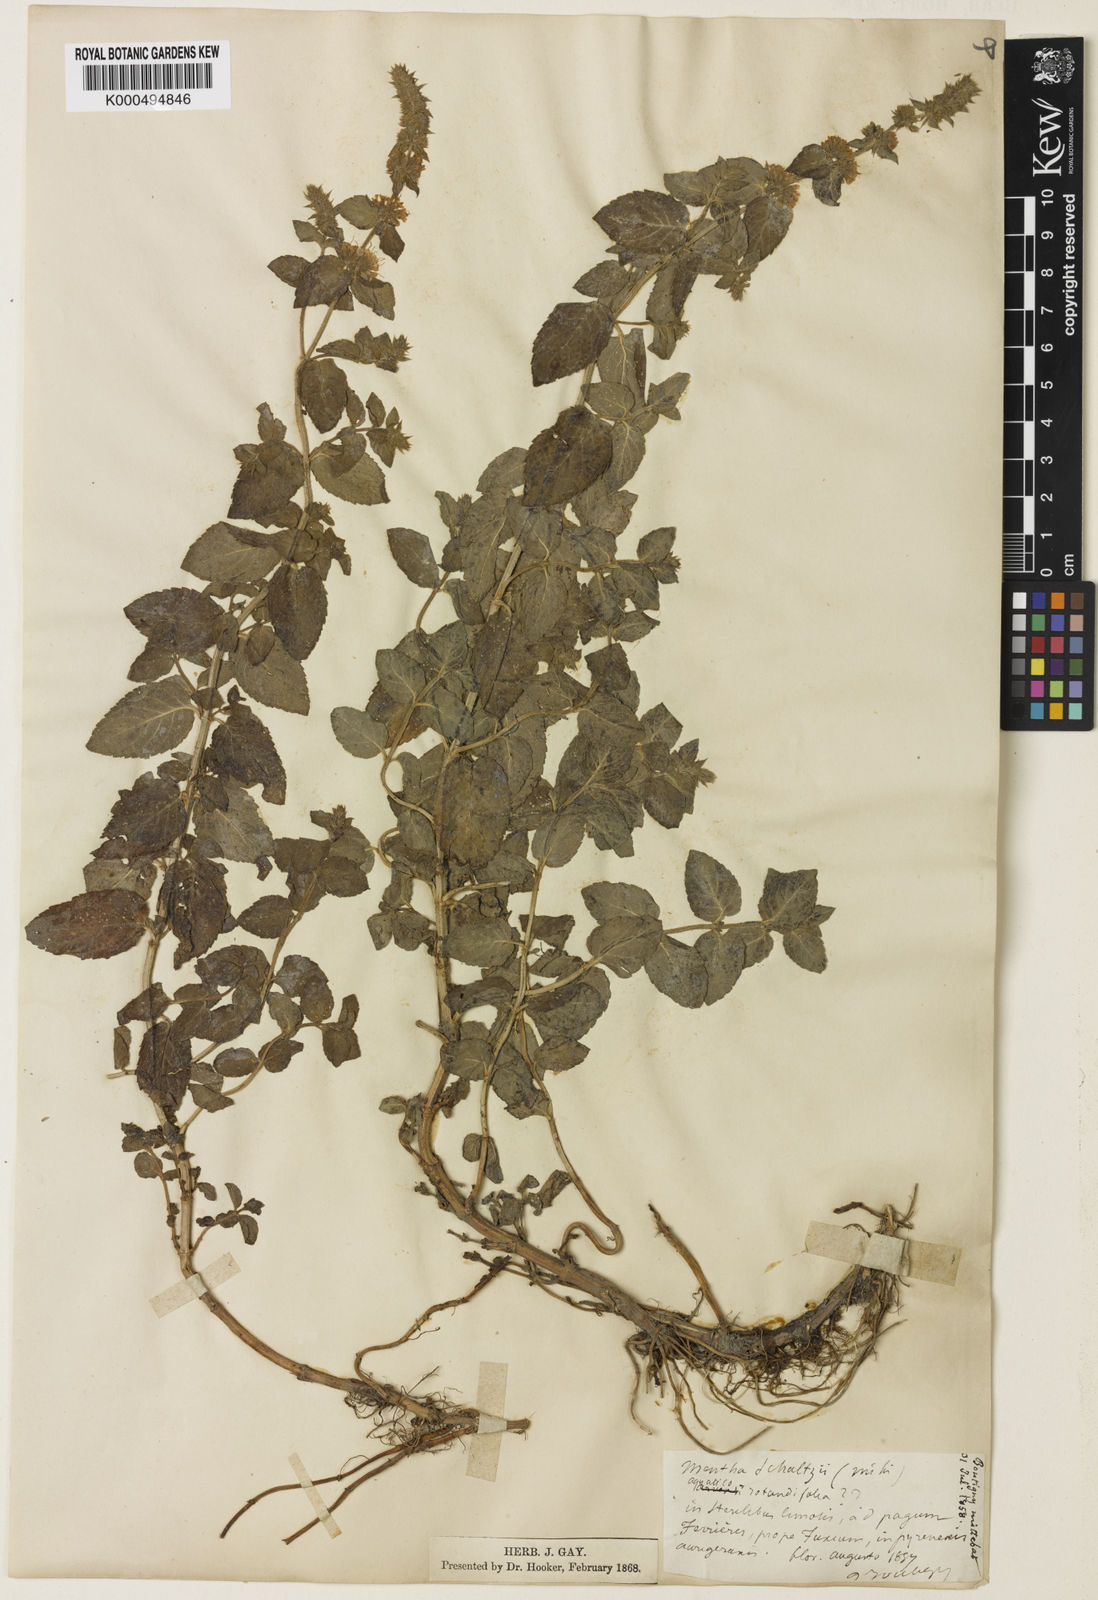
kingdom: Plantae
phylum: Tracheophyta
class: Magnoliopsida
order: Lamiales
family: Lamiaceae
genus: Mentha
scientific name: Mentha suavis
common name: Sweet mint
